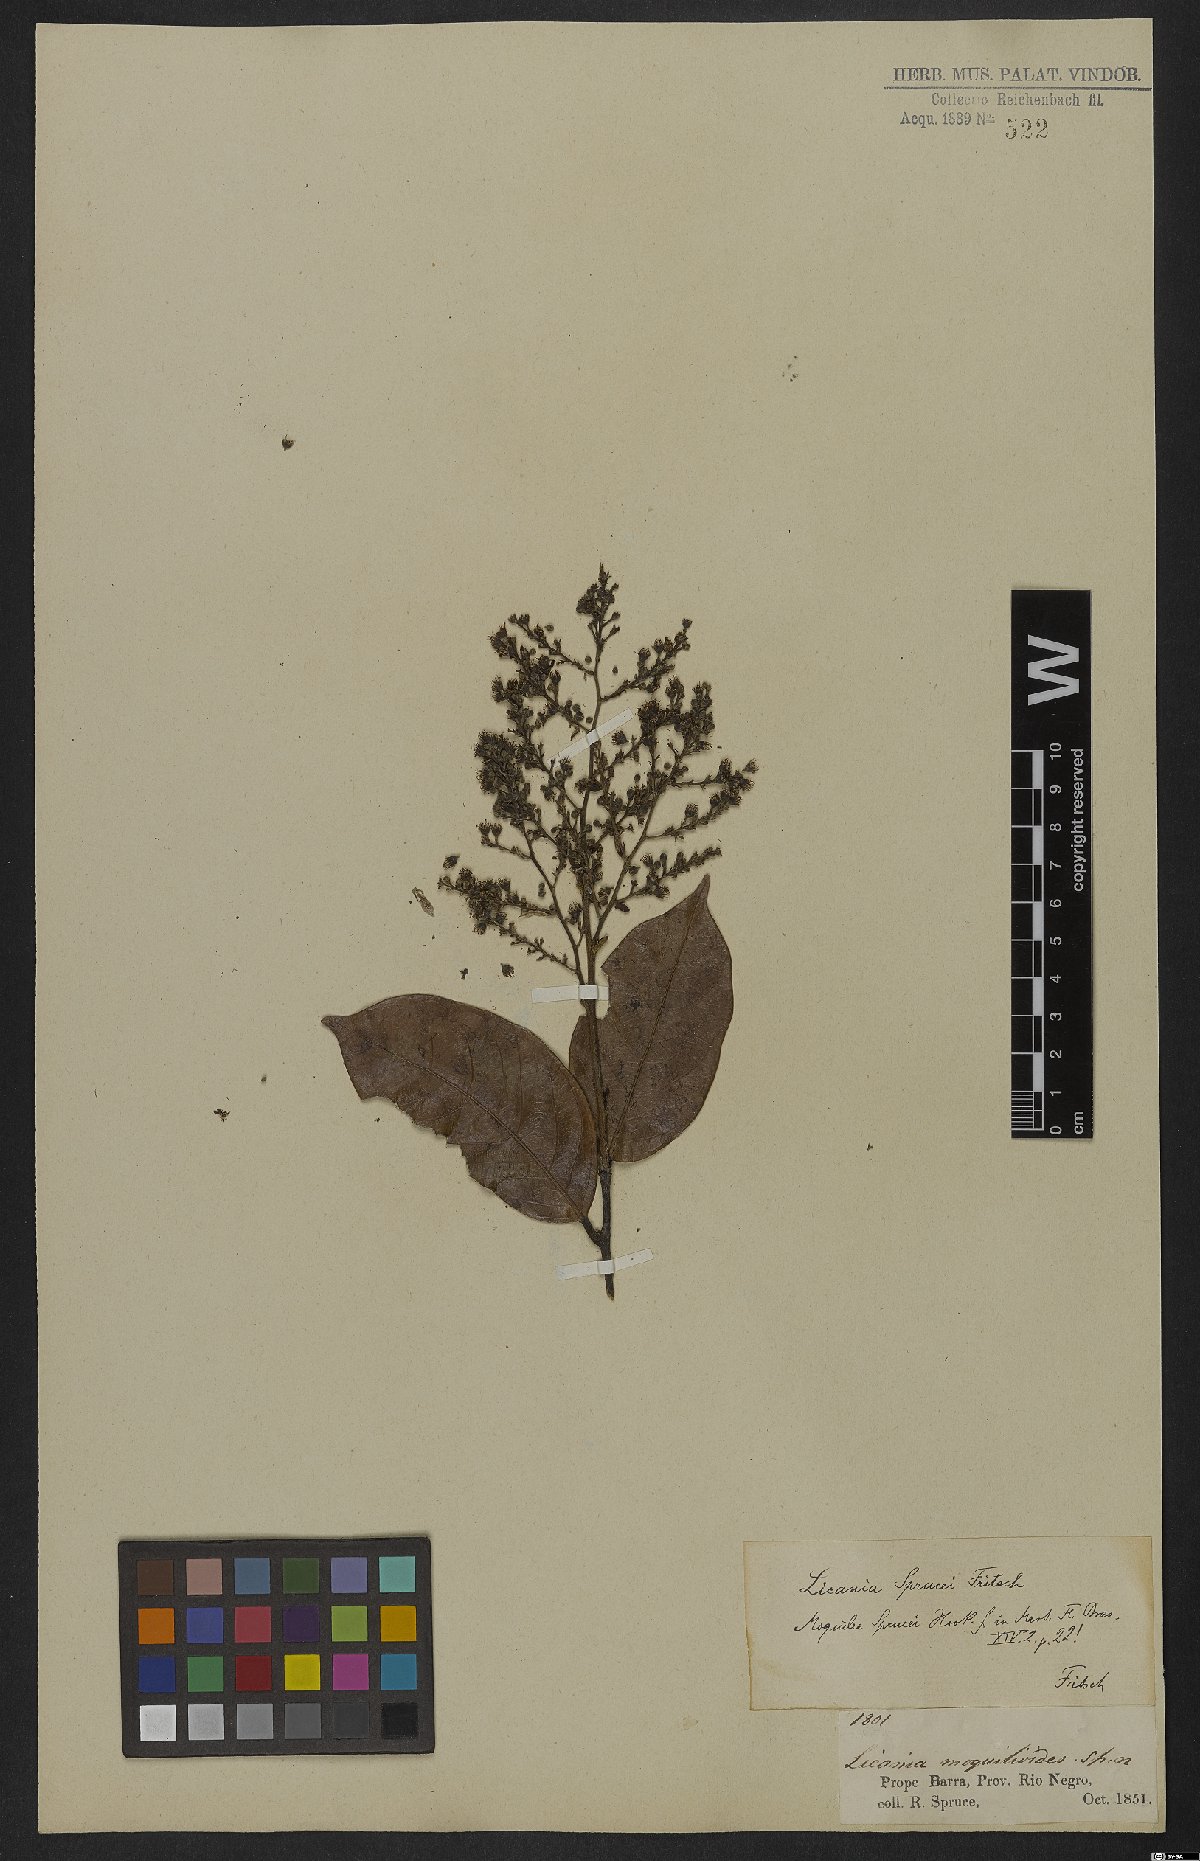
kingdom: Plantae
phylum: Tracheophyta
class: Magnoliopsida
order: Malpighiales
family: Chrysobalanaceae
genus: Leptobalanus
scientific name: Leptobalanus sprucei
